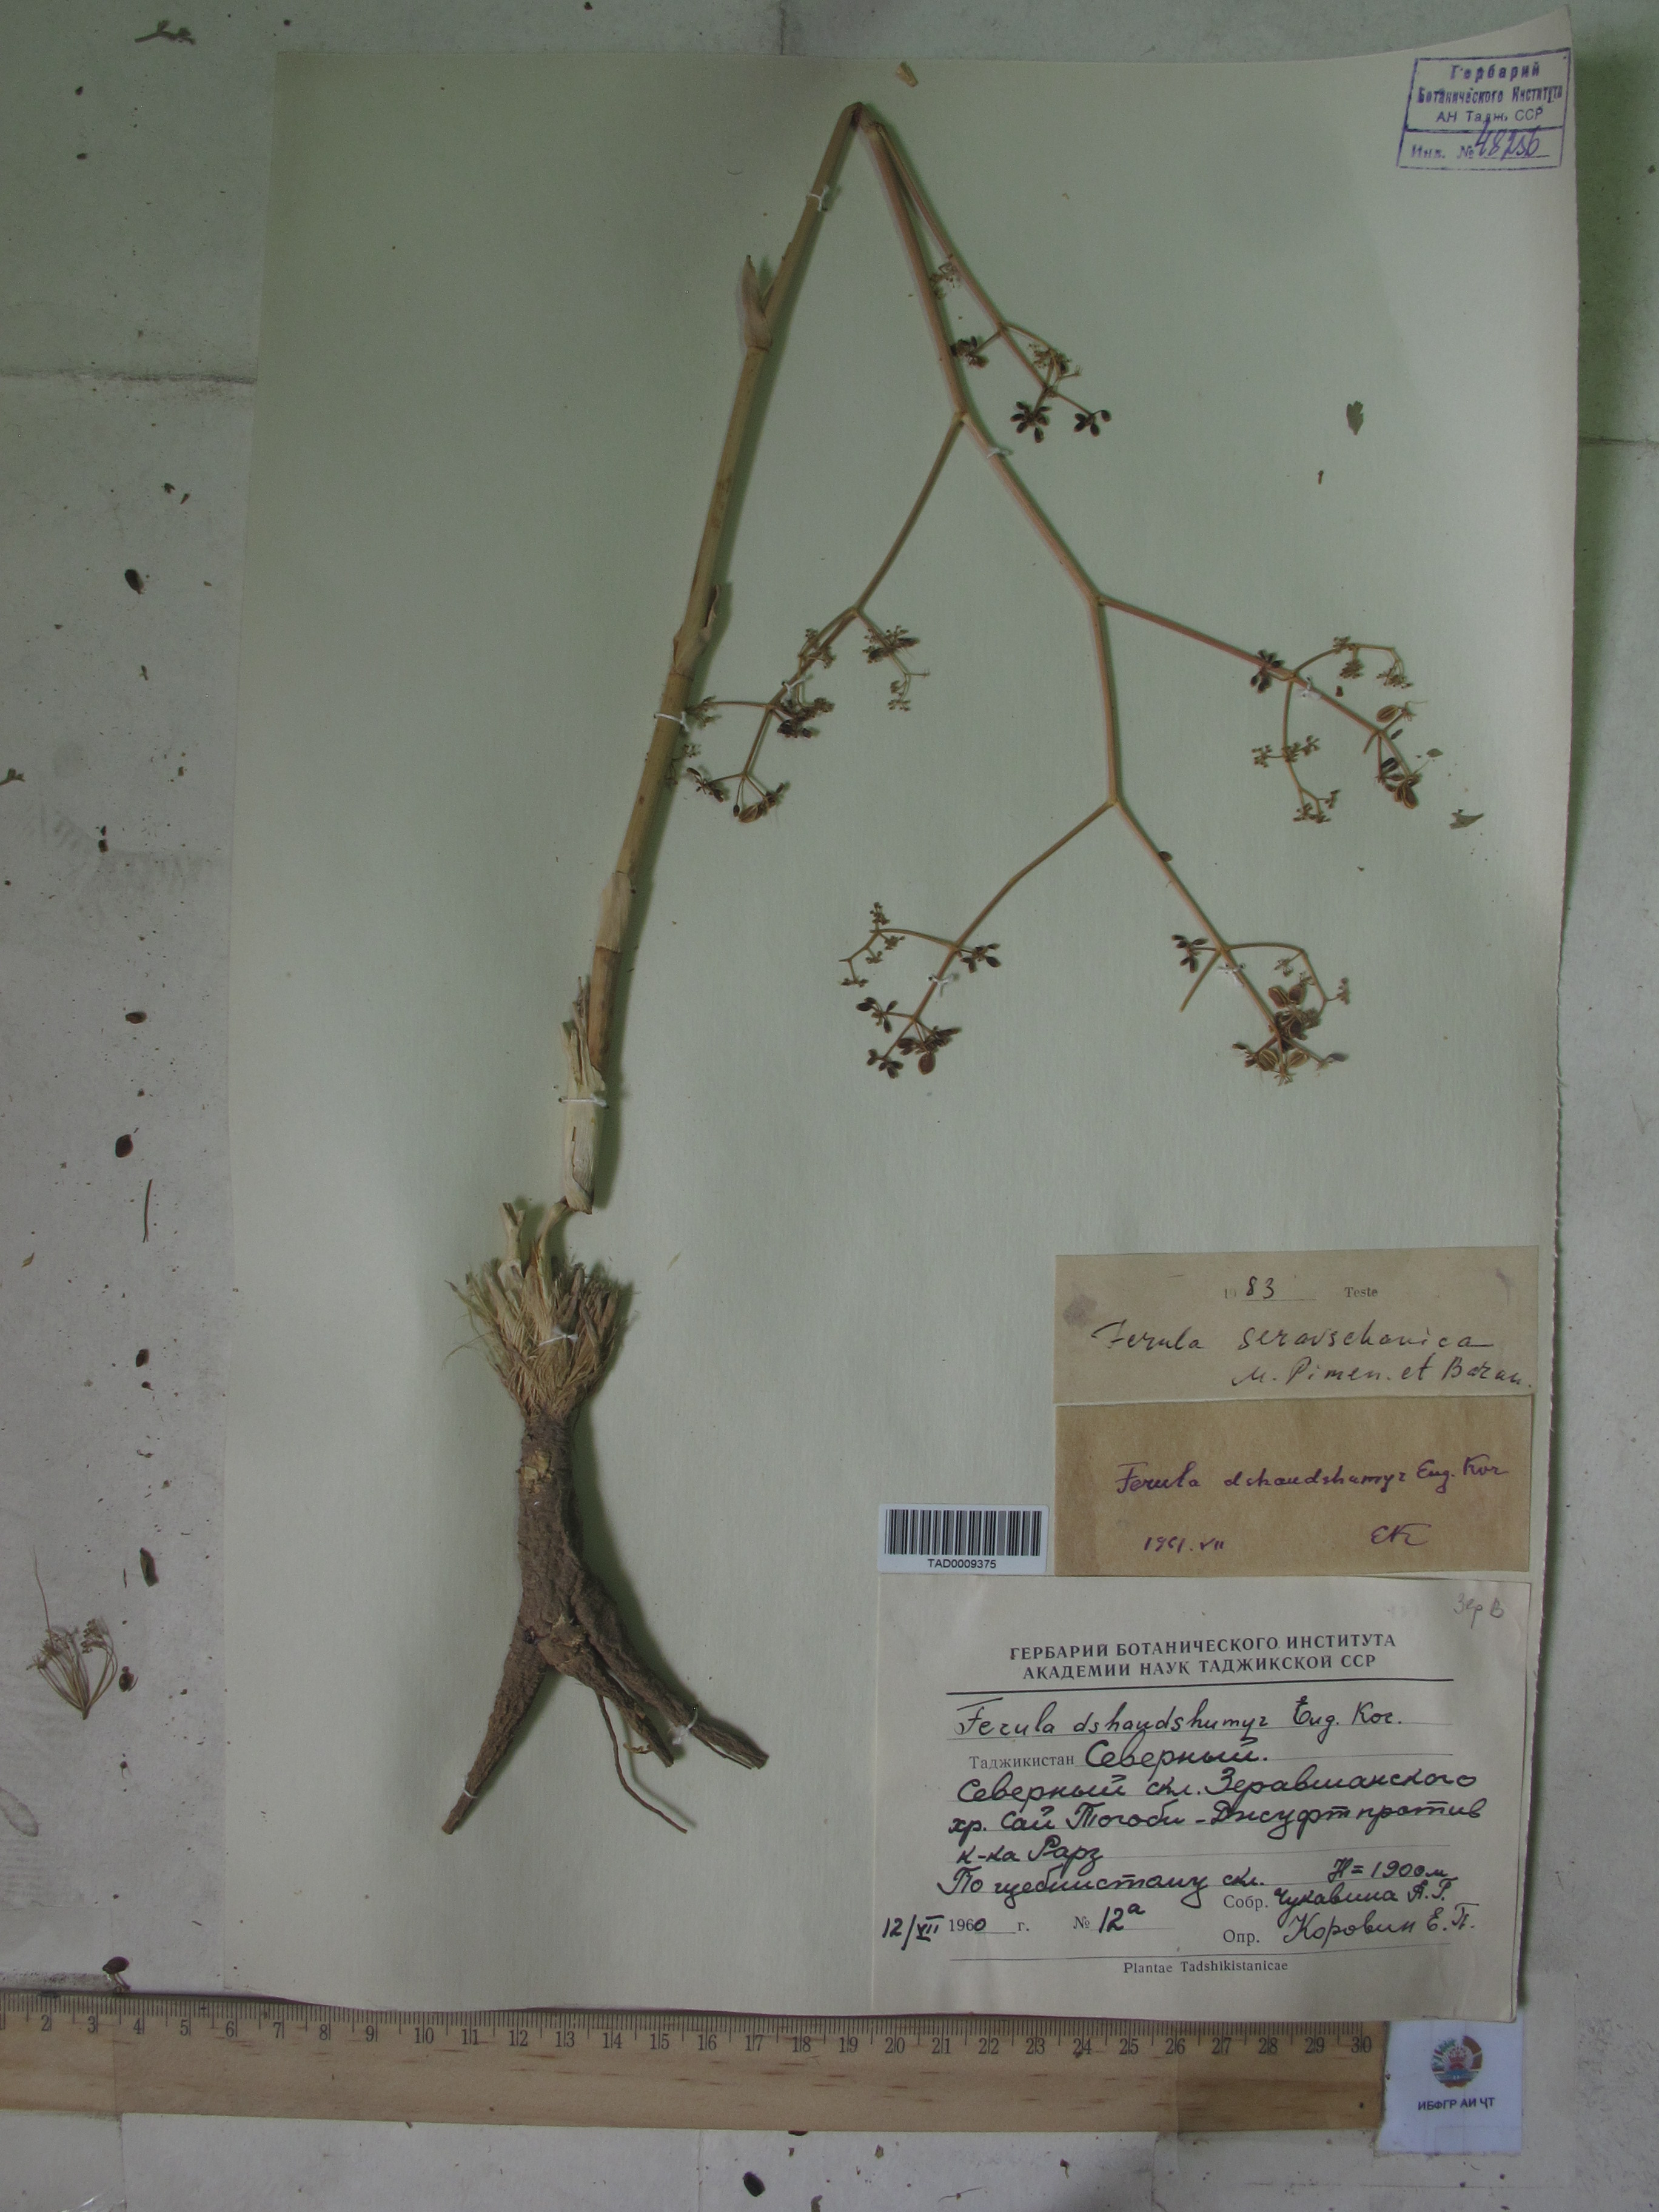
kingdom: Plantae
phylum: Tracheophyta
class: Magnoliopsida
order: Apiales
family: Apiaceae
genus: Ferula
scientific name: Ferula seravschanica
